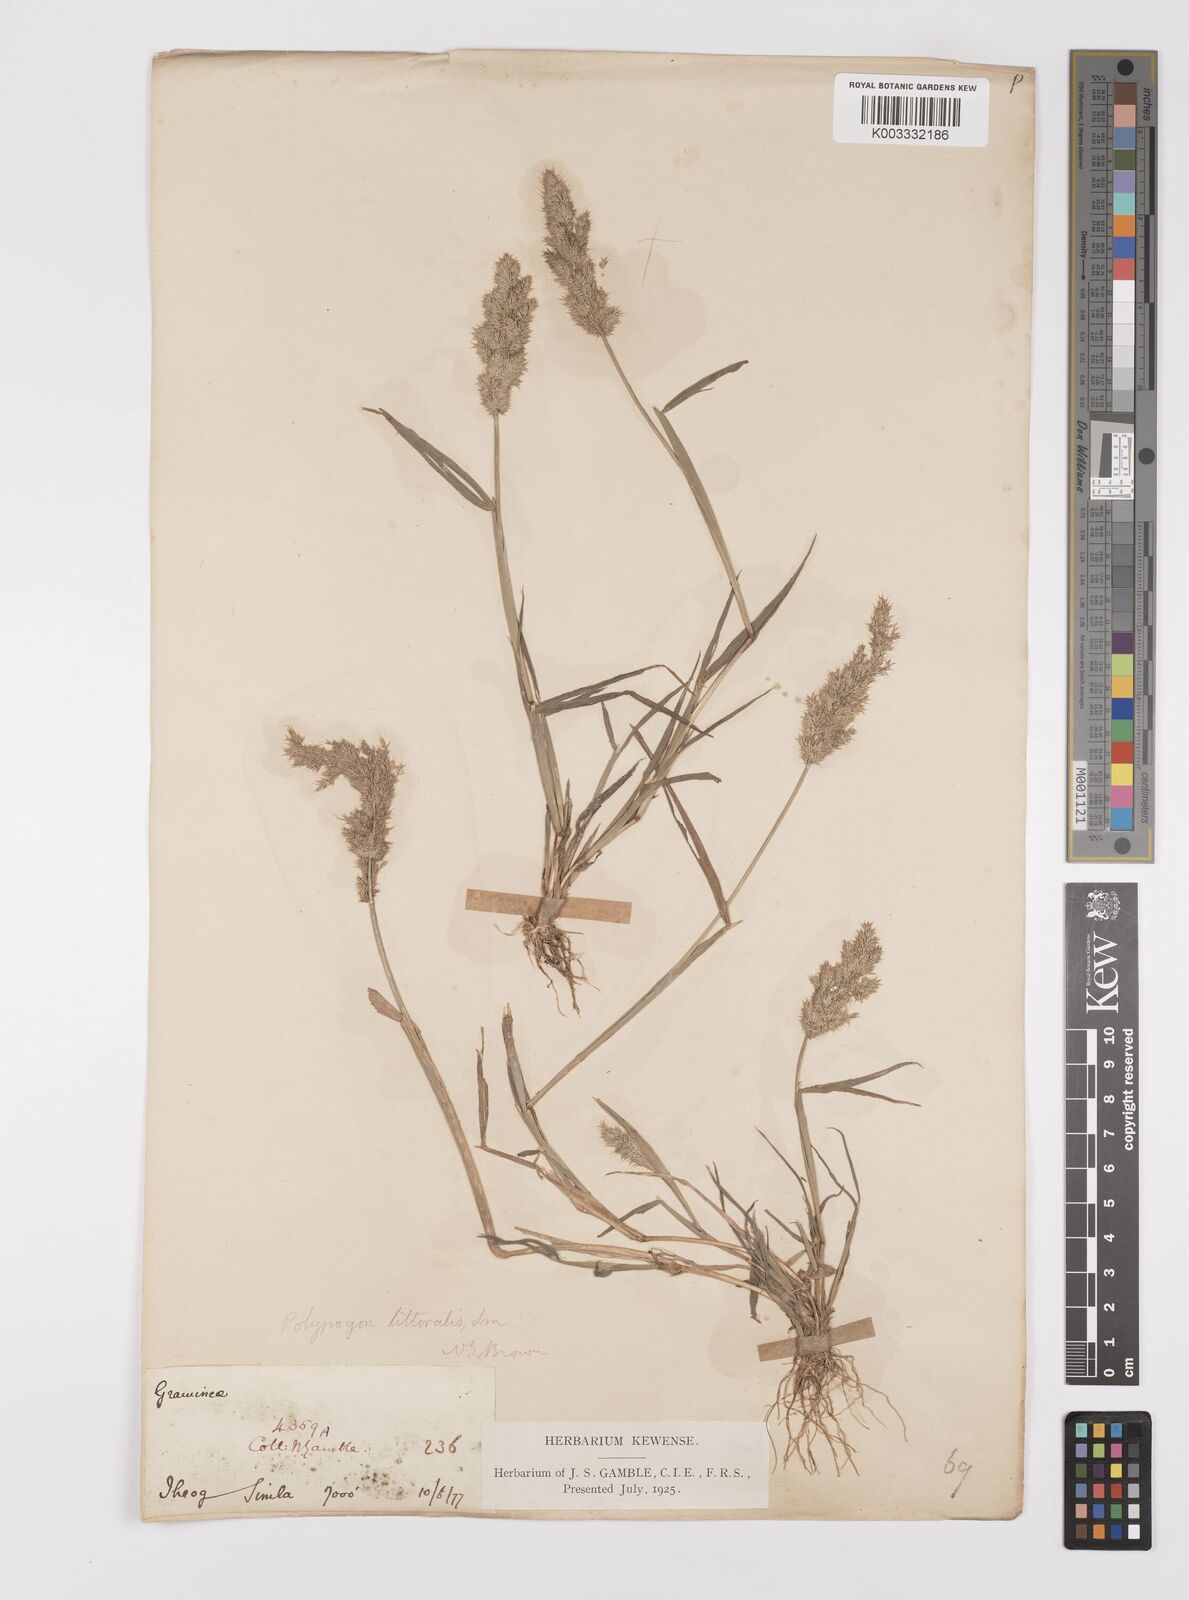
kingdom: Plantae
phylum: Tracheophyta
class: Liliopsida
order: Poales
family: Poaceae
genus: Polypogon
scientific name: Polypogon fugax
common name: Asia minor bluegrass
